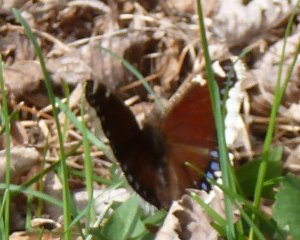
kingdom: Animalia
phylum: Arthropoda
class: Insecta
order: Lepidoptera
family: Nymphalidae
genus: Nymphalis
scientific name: Nymphalis antiopa
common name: Mourning Cloak
